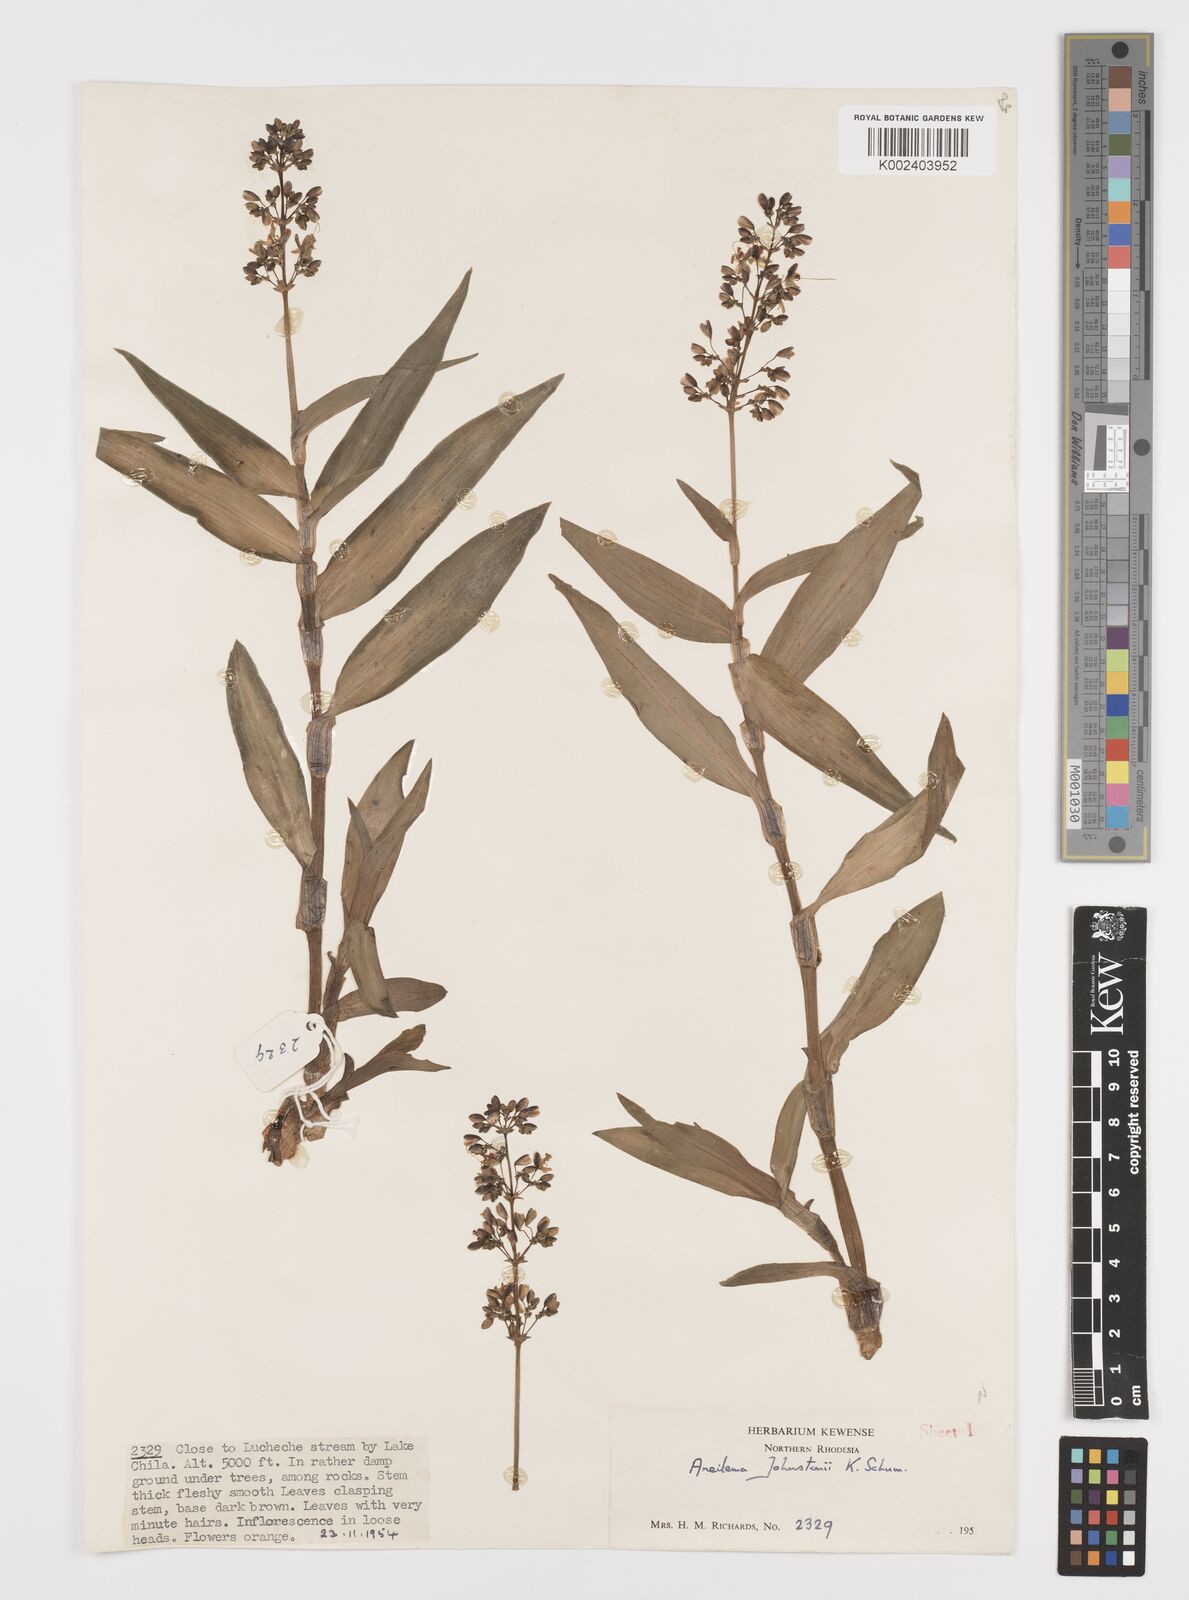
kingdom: Plantae
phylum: Tracheophyta
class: Liliopsida
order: Commelinales
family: Commelinaceae
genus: Aneilema
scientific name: Aneilema johnstonii
